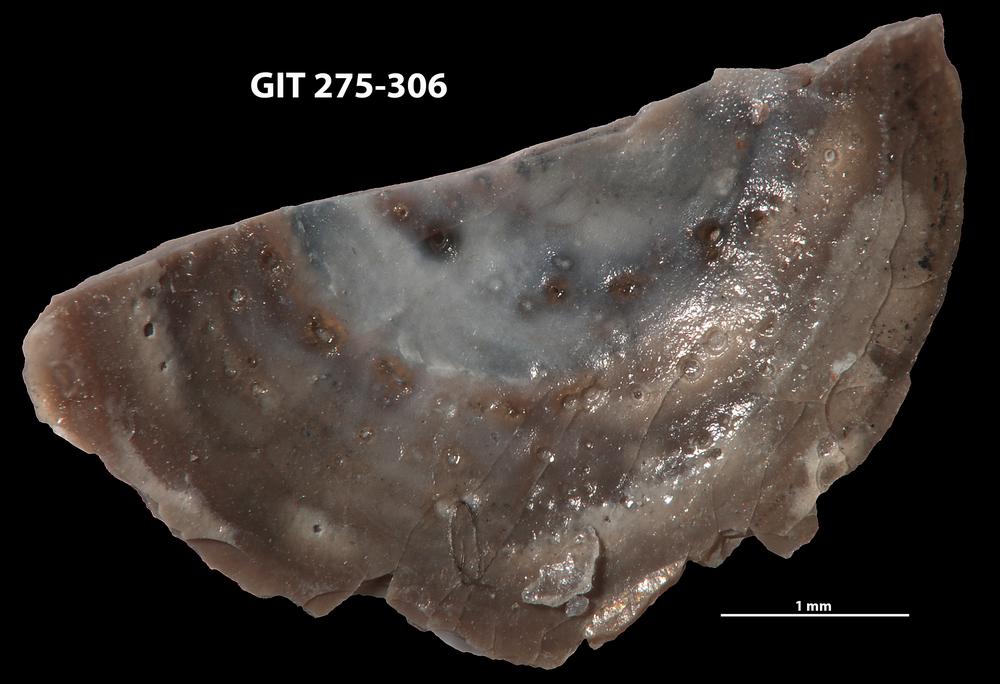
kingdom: Animalia
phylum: Brachiopoda
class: Lingulata
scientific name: Lingulata
